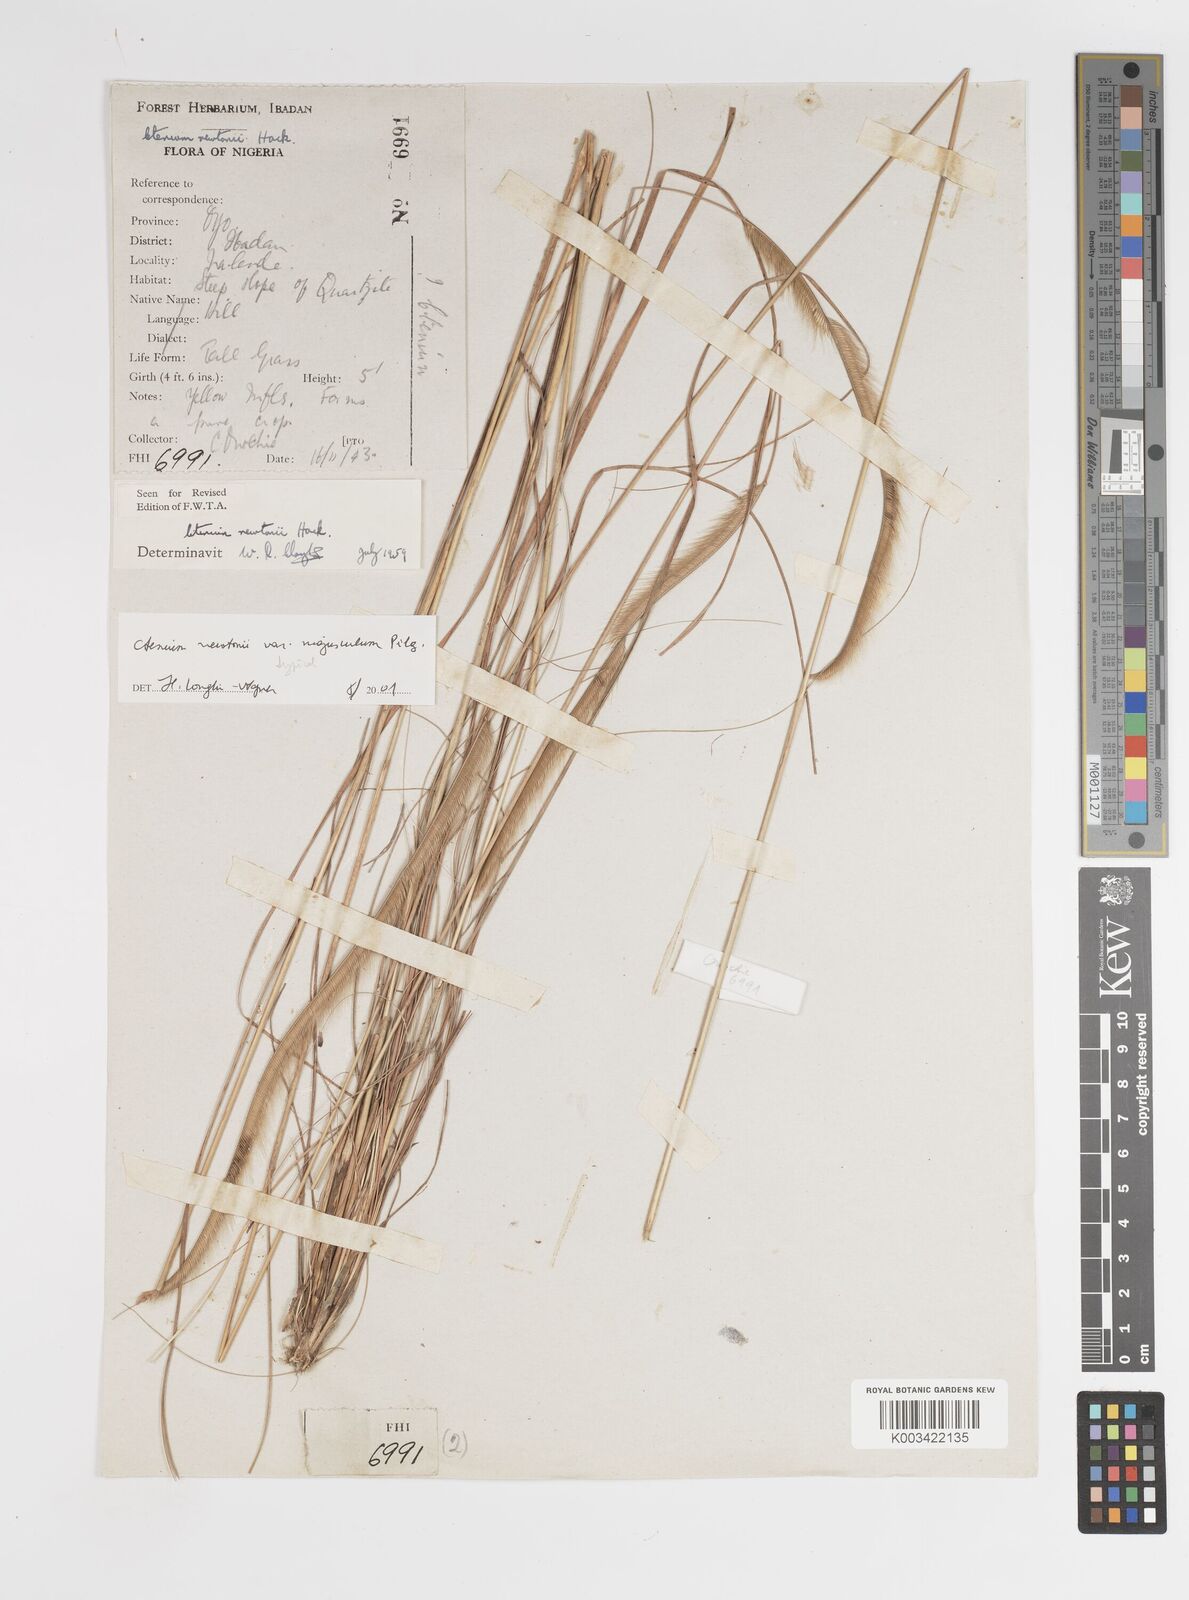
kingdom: Plantae
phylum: Tracheophyta
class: Liliopsida
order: Poales
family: Poaceae
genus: Ctenium
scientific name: Ctenium newtonii
